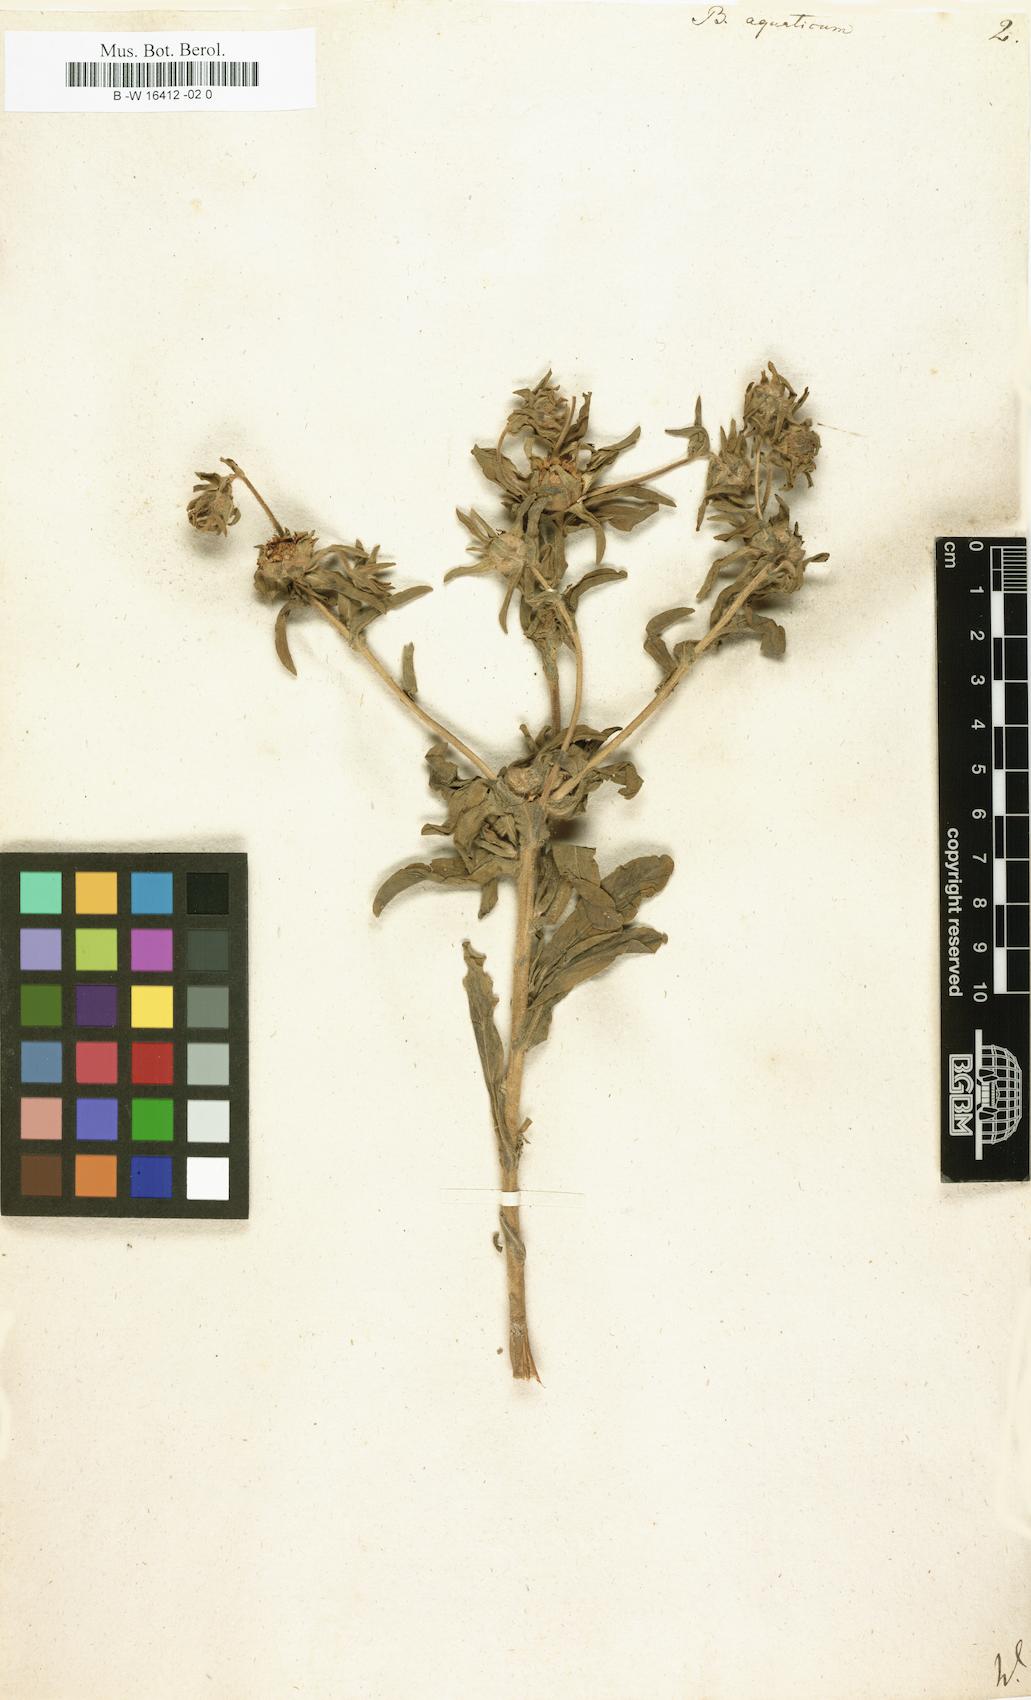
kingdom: Plantae
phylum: Tracheophyta
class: Magnoliopsida
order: Asterales
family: Asteraceae
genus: Asteriscus
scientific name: Asteriscus aquaticus
